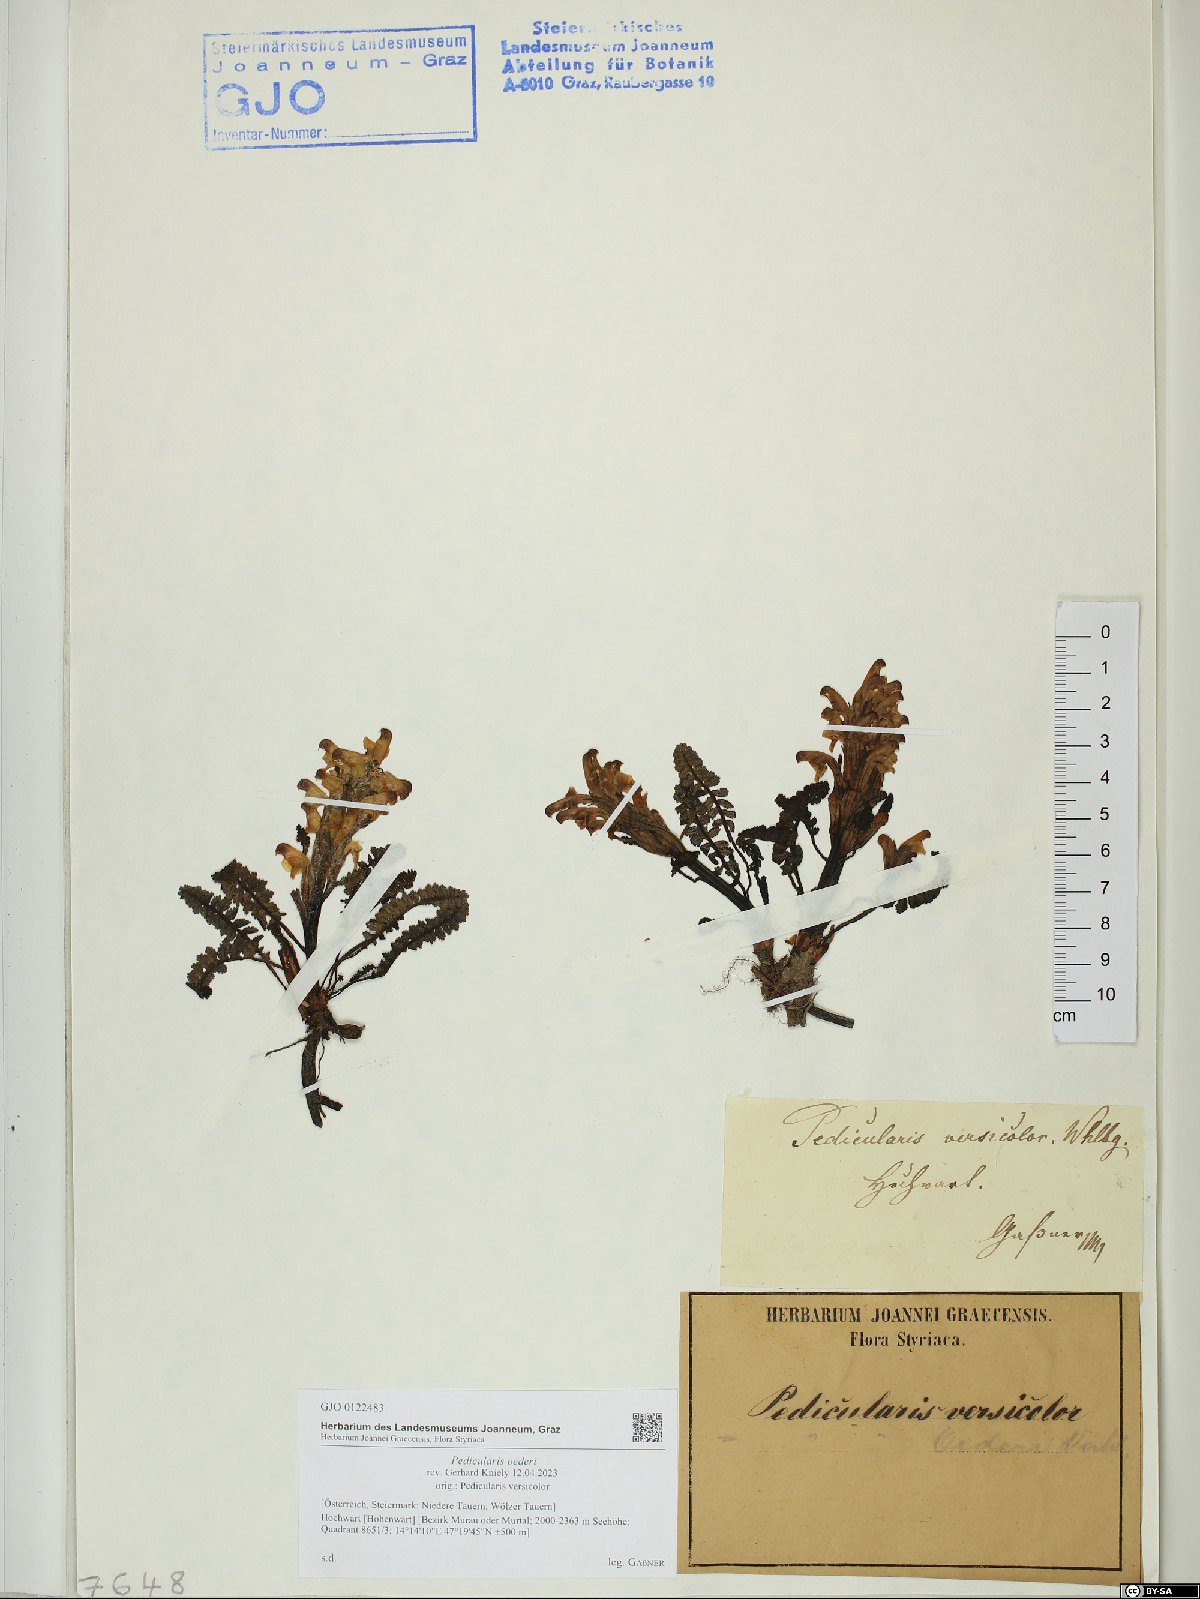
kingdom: Plantae
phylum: Tracheophyta
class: Magnoliopsida
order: Lamiales
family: Orobanchaceae
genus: Pedicularis
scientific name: Pedicularis oederi
